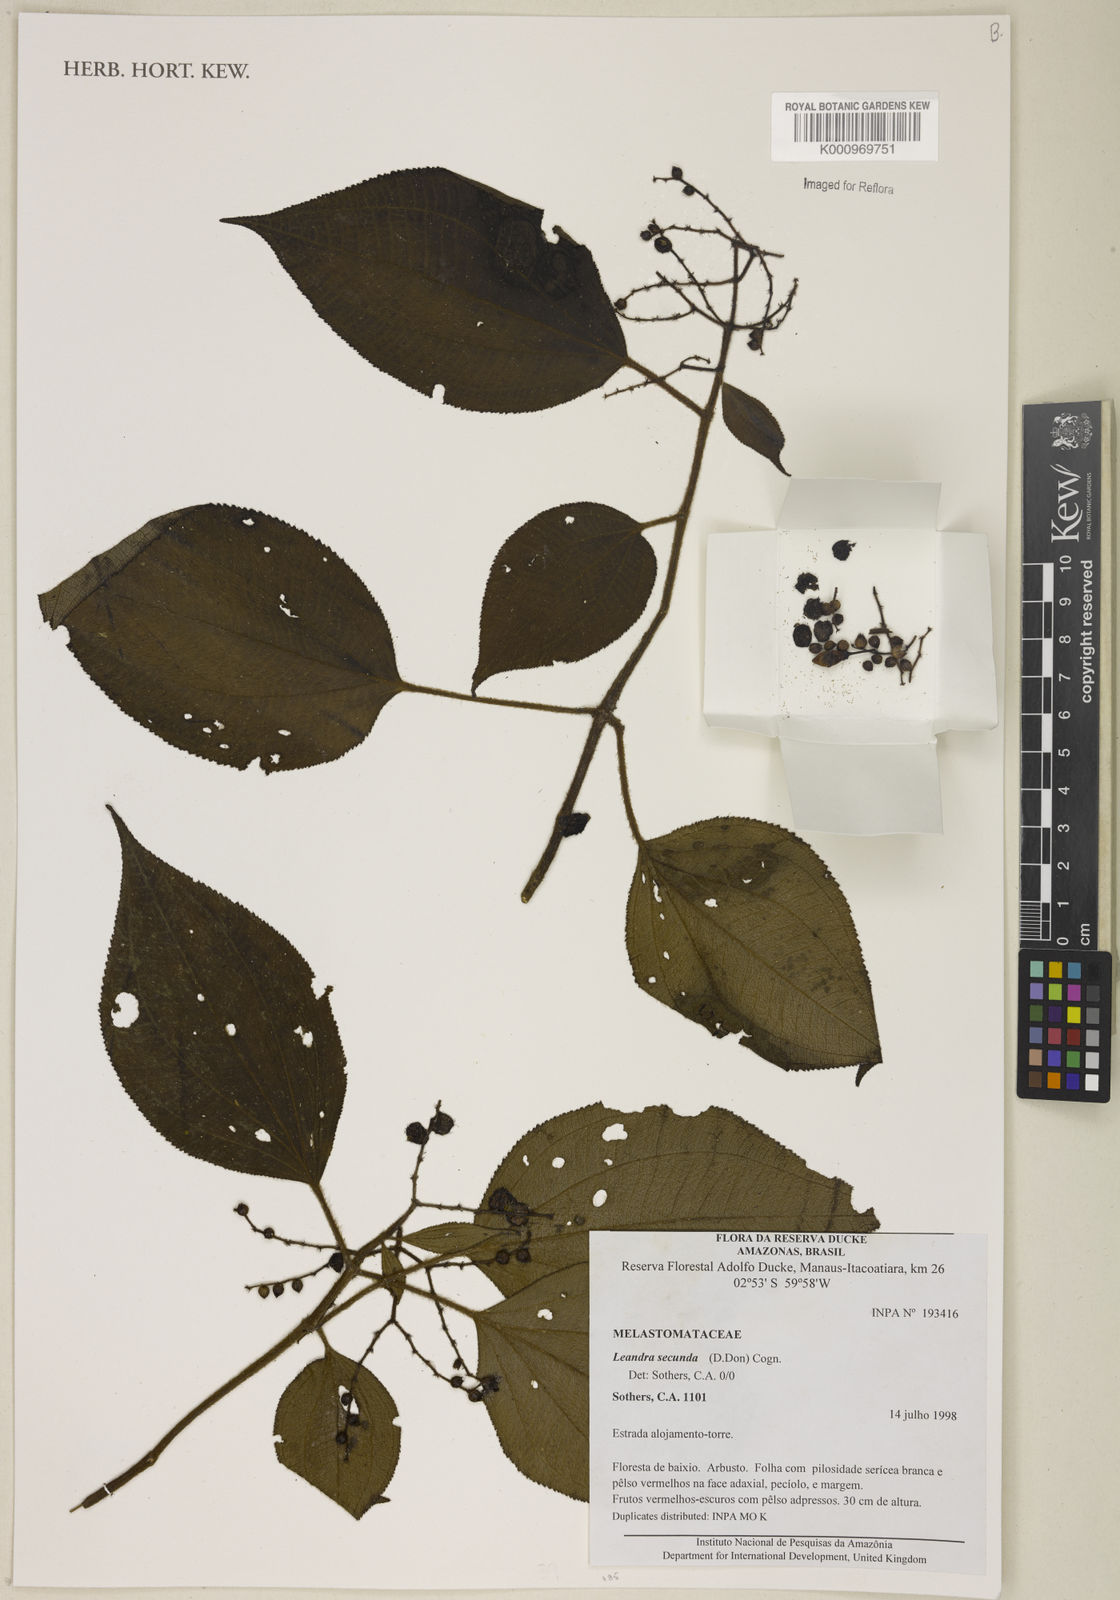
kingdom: Plantae
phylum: Tracheophyta
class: Magnoliopsida
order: Myrtales
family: Melastomataceae
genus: Miconia
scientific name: Miconia neosecunda
